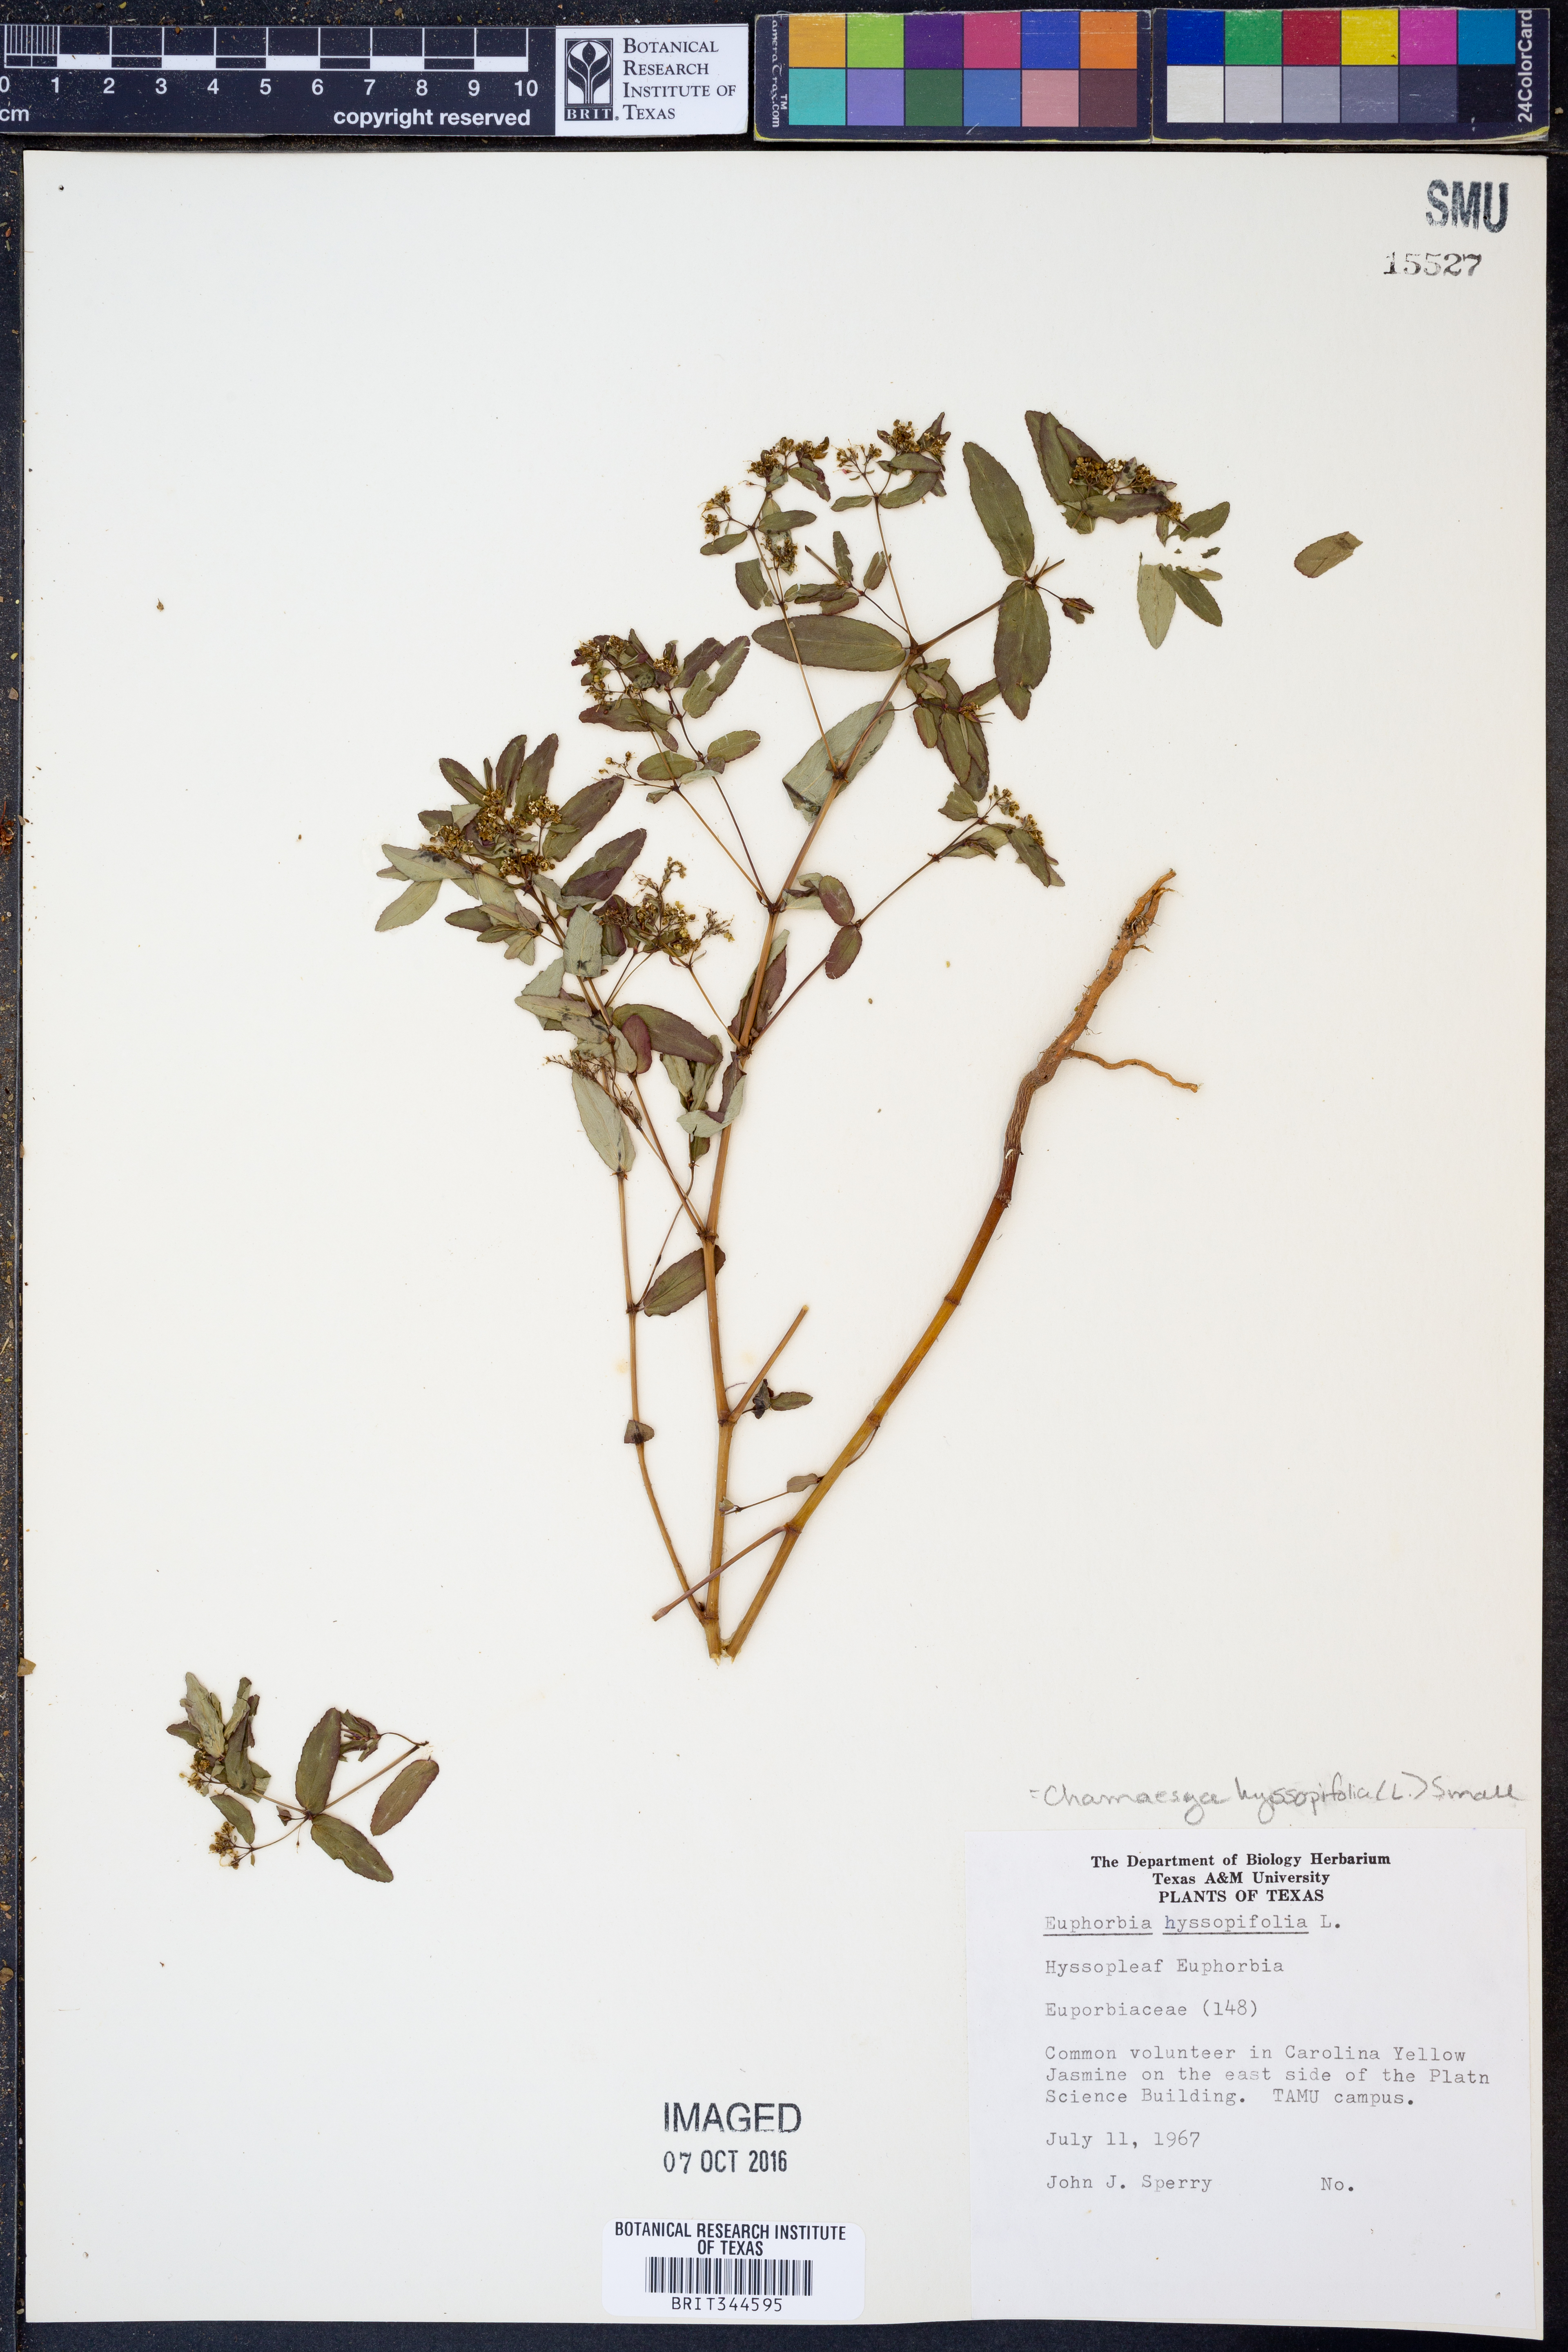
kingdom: Plantae
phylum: Tracheophyta
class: Magnoliopsida
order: Malpighiales
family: Euphorbiaceae
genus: Euphorbia
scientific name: Euphorbia hyssopifolia
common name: Hyssopleaf sandmat
